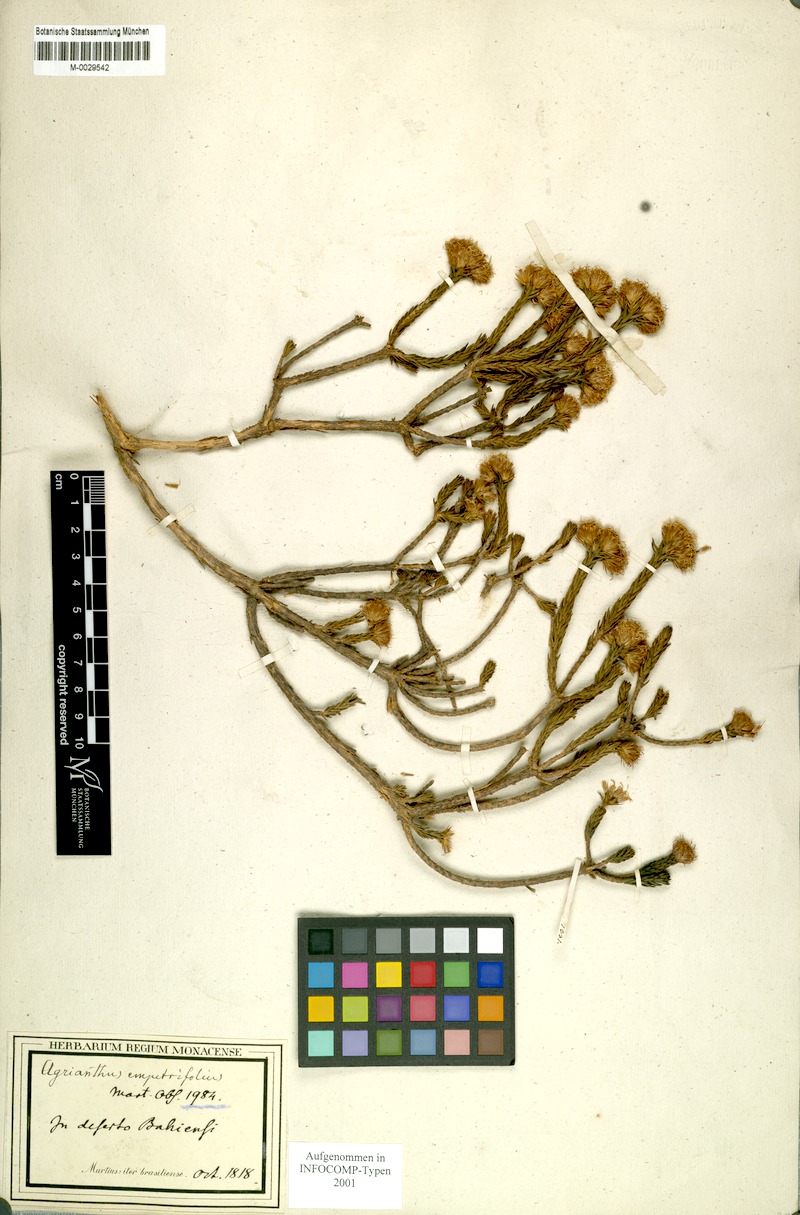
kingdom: Plantae
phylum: Tracheophyta
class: Magnoliopsida
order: Asterales
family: Asteraceae
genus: Agrianthus
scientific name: Agrianthus empetrifolius
